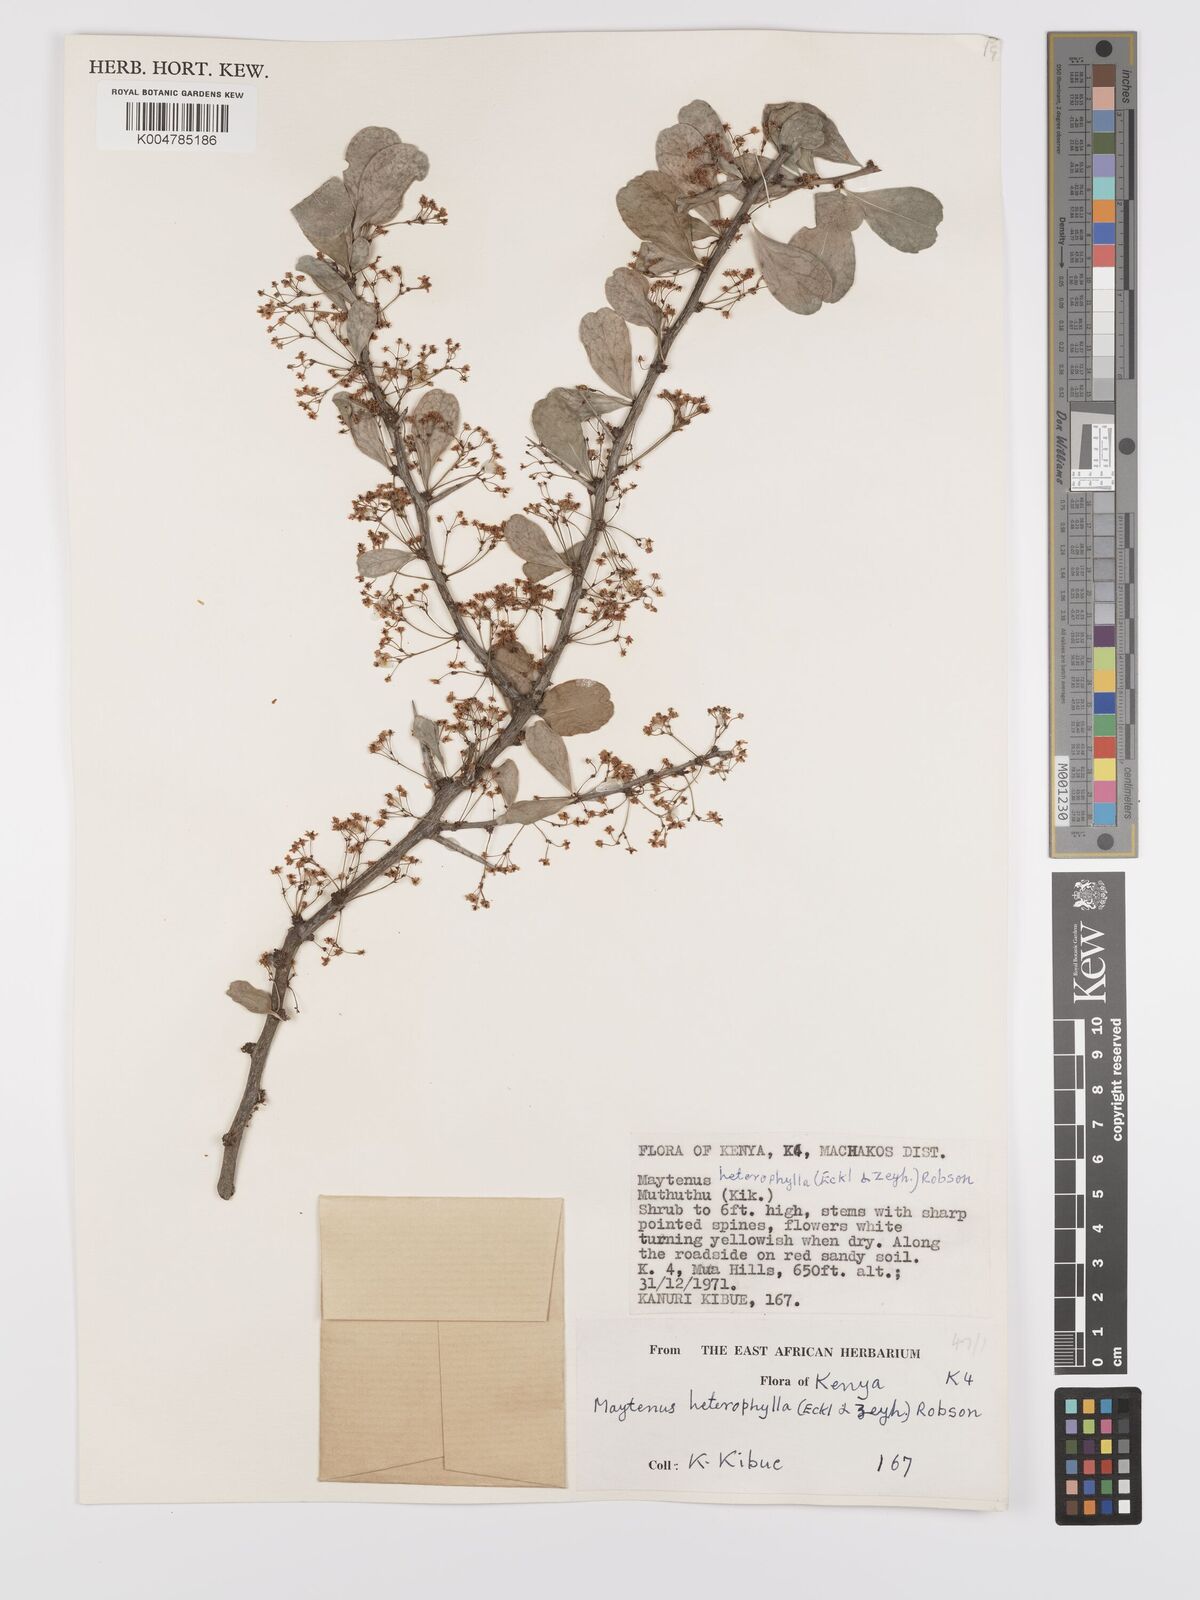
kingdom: Plantae
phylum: Tracheophyta
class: Magnoliopsida
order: Celastrales
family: Celastraceae
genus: Gymnosporia
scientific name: Gymnosporia heterophylla
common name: Angle-stem spikethorn
